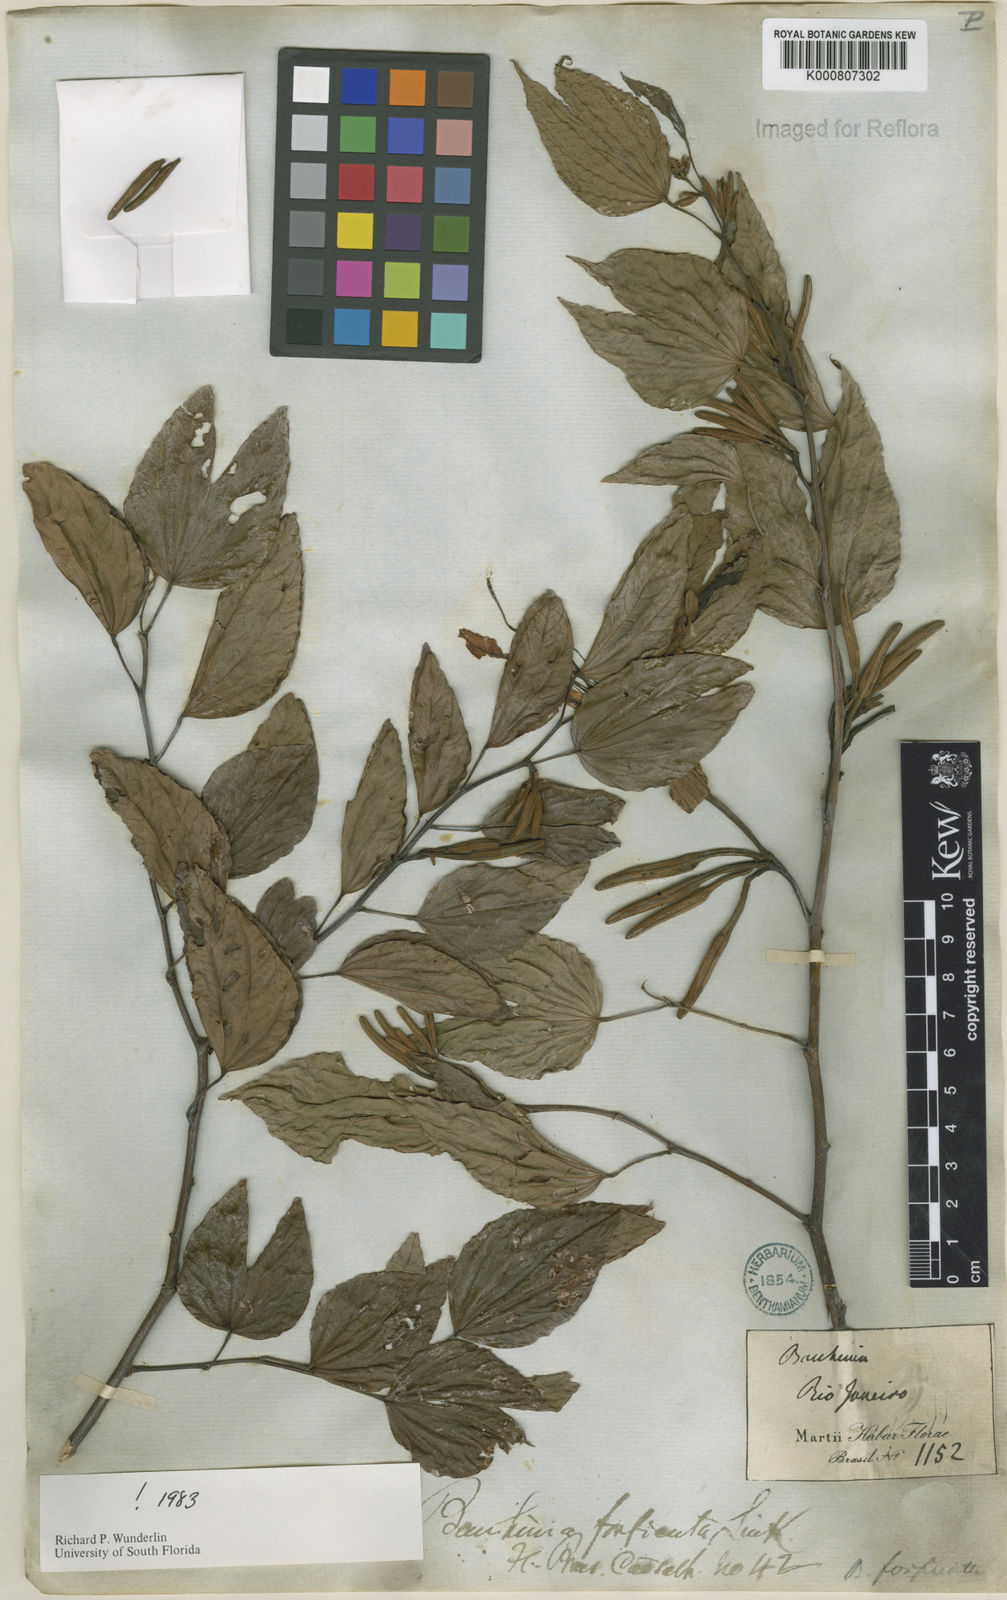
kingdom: Plantae
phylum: Tracheophyta
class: Magnoliopsida
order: Fabales
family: Fabaceae
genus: Bauhinia
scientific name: Bauhinia forficata
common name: Orchid tree
